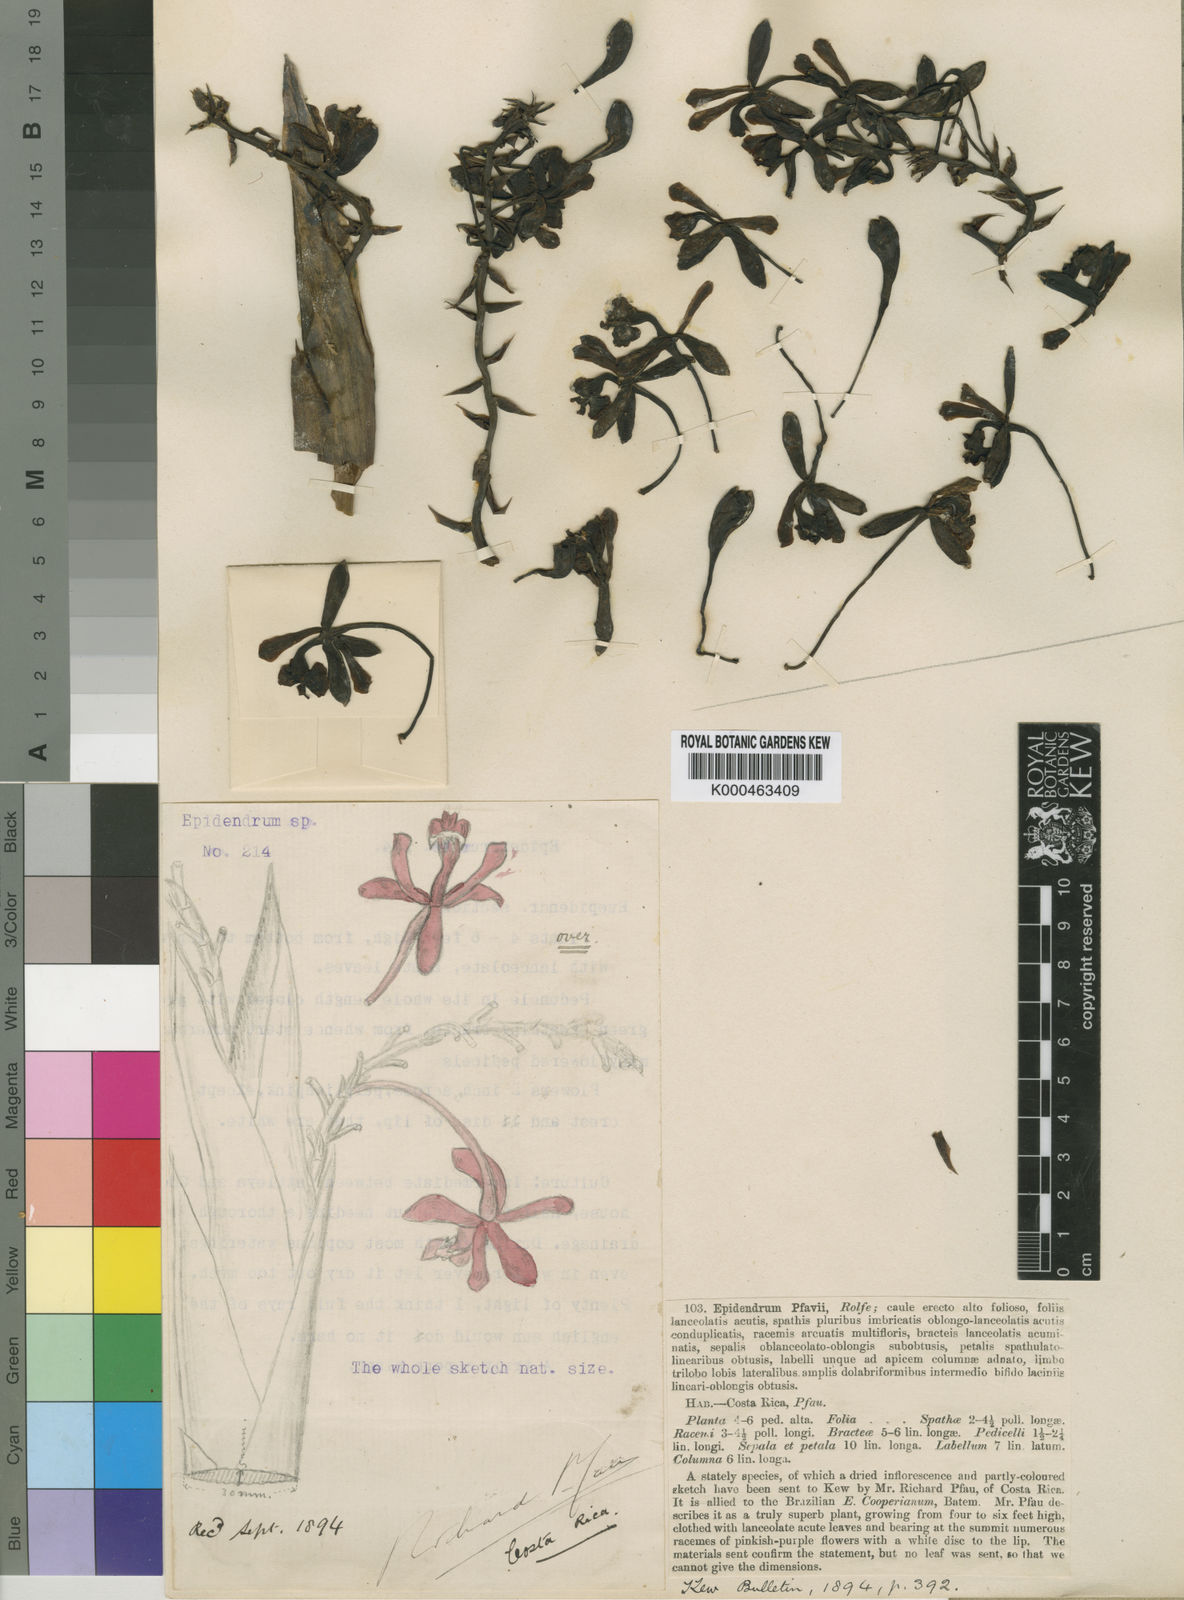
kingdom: Plantae
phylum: Tracheophyta
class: Liliopsida
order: Asparagales
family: Orchidaceae
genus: Epidendrum
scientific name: Epidendrum cnemidophorum
